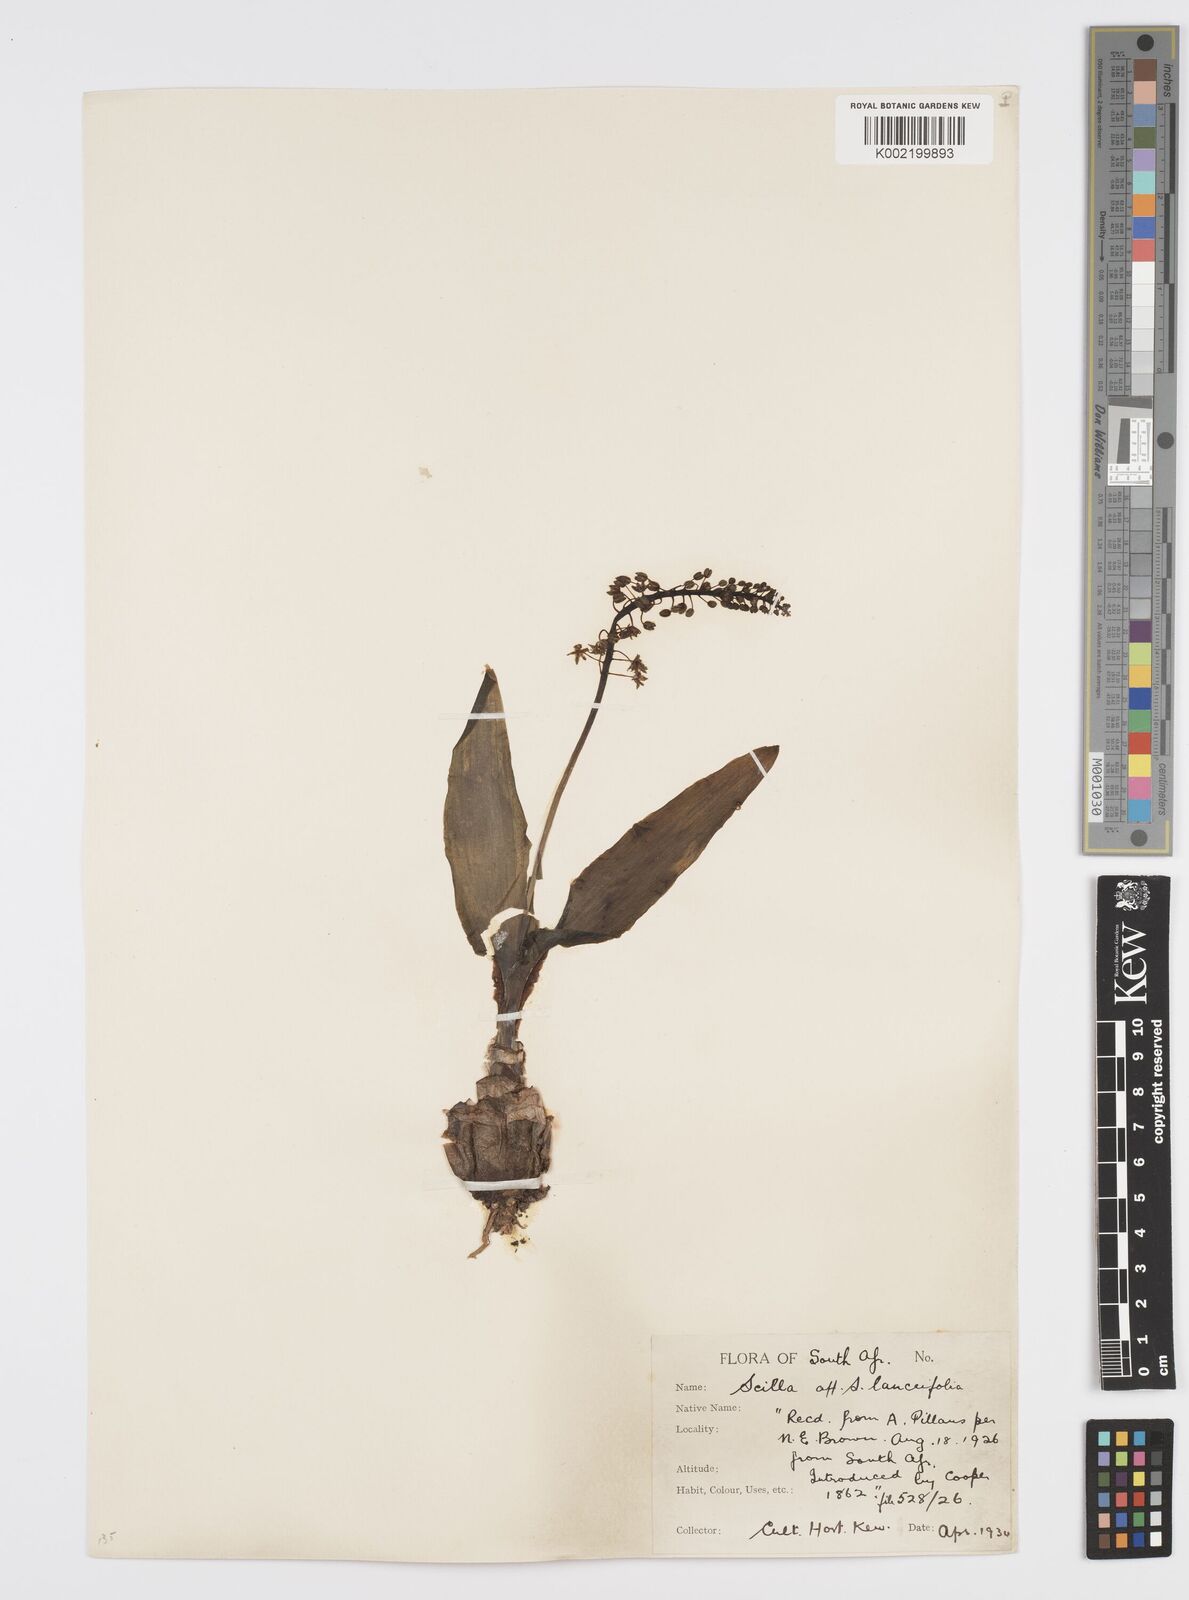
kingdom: Plantae
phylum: Tracheophyta
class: Liliopsida
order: Asparagales
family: Asparagaceae
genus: Ledebouria
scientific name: Ledebouria revoluta
